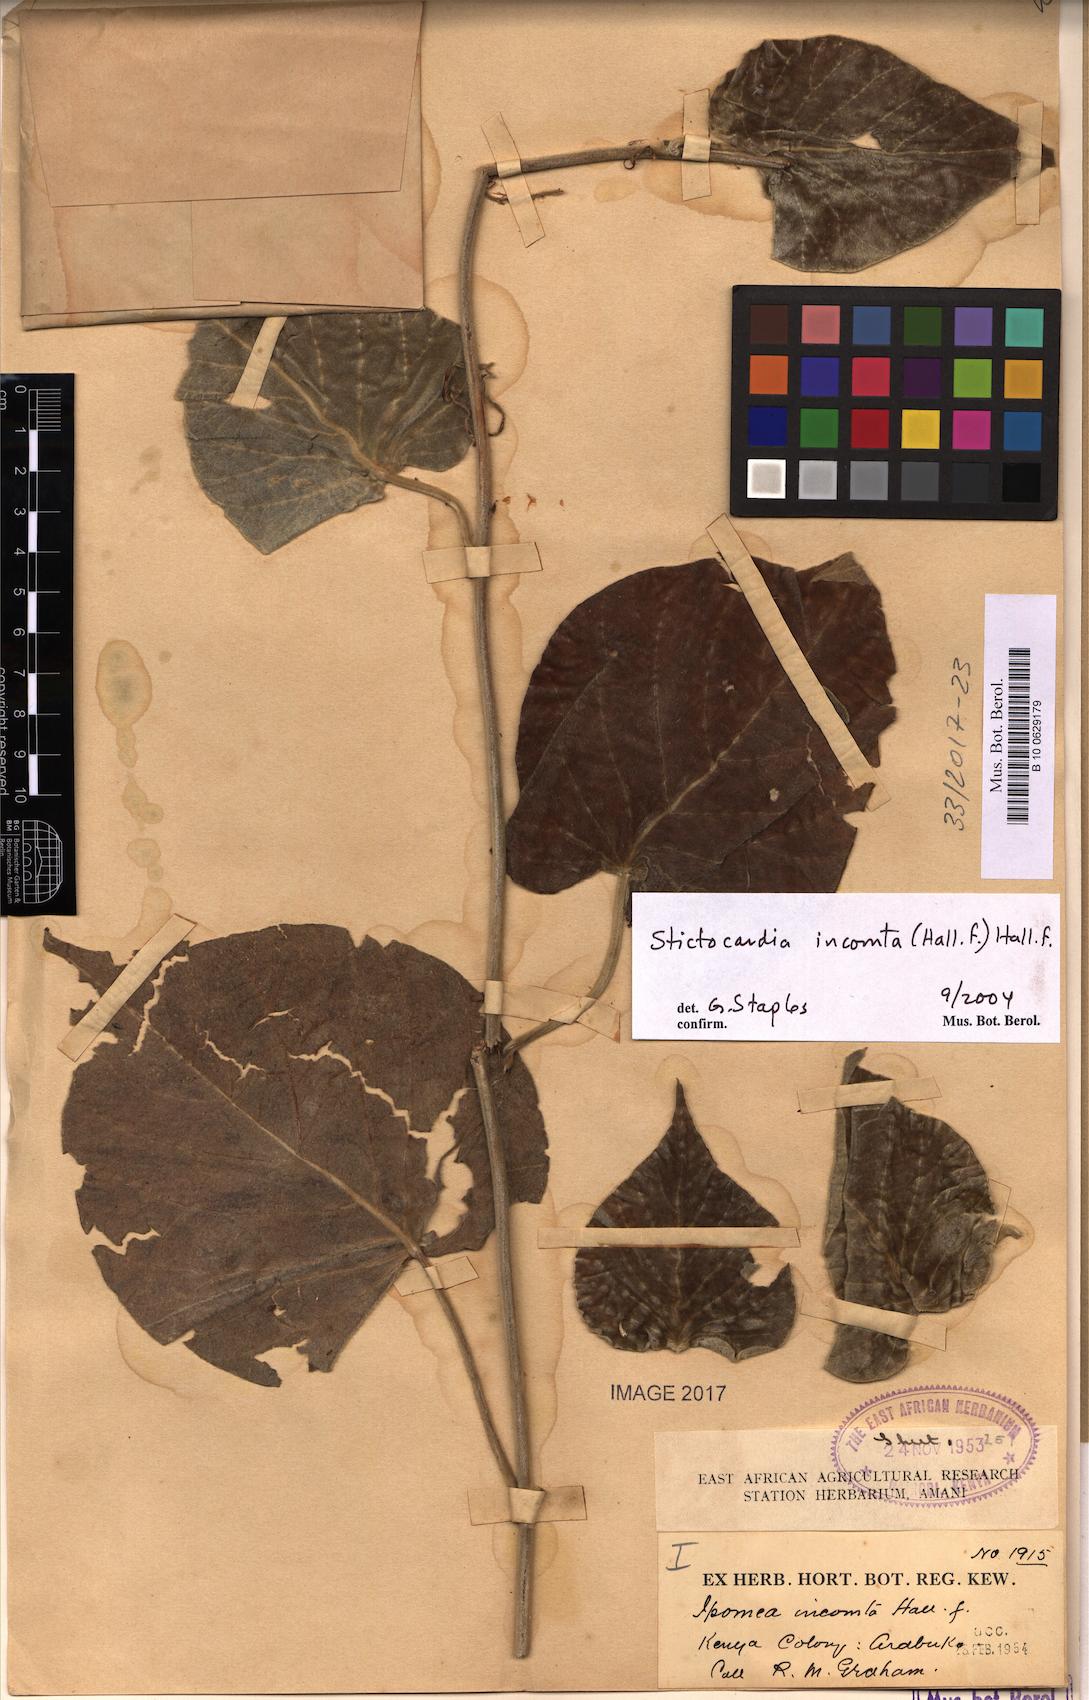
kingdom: Plantae
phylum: Tracheophyta
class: Magnoliopsida
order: Solanales
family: Convolvulaceae
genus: Stictocardia
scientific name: Stictocardia incomta
